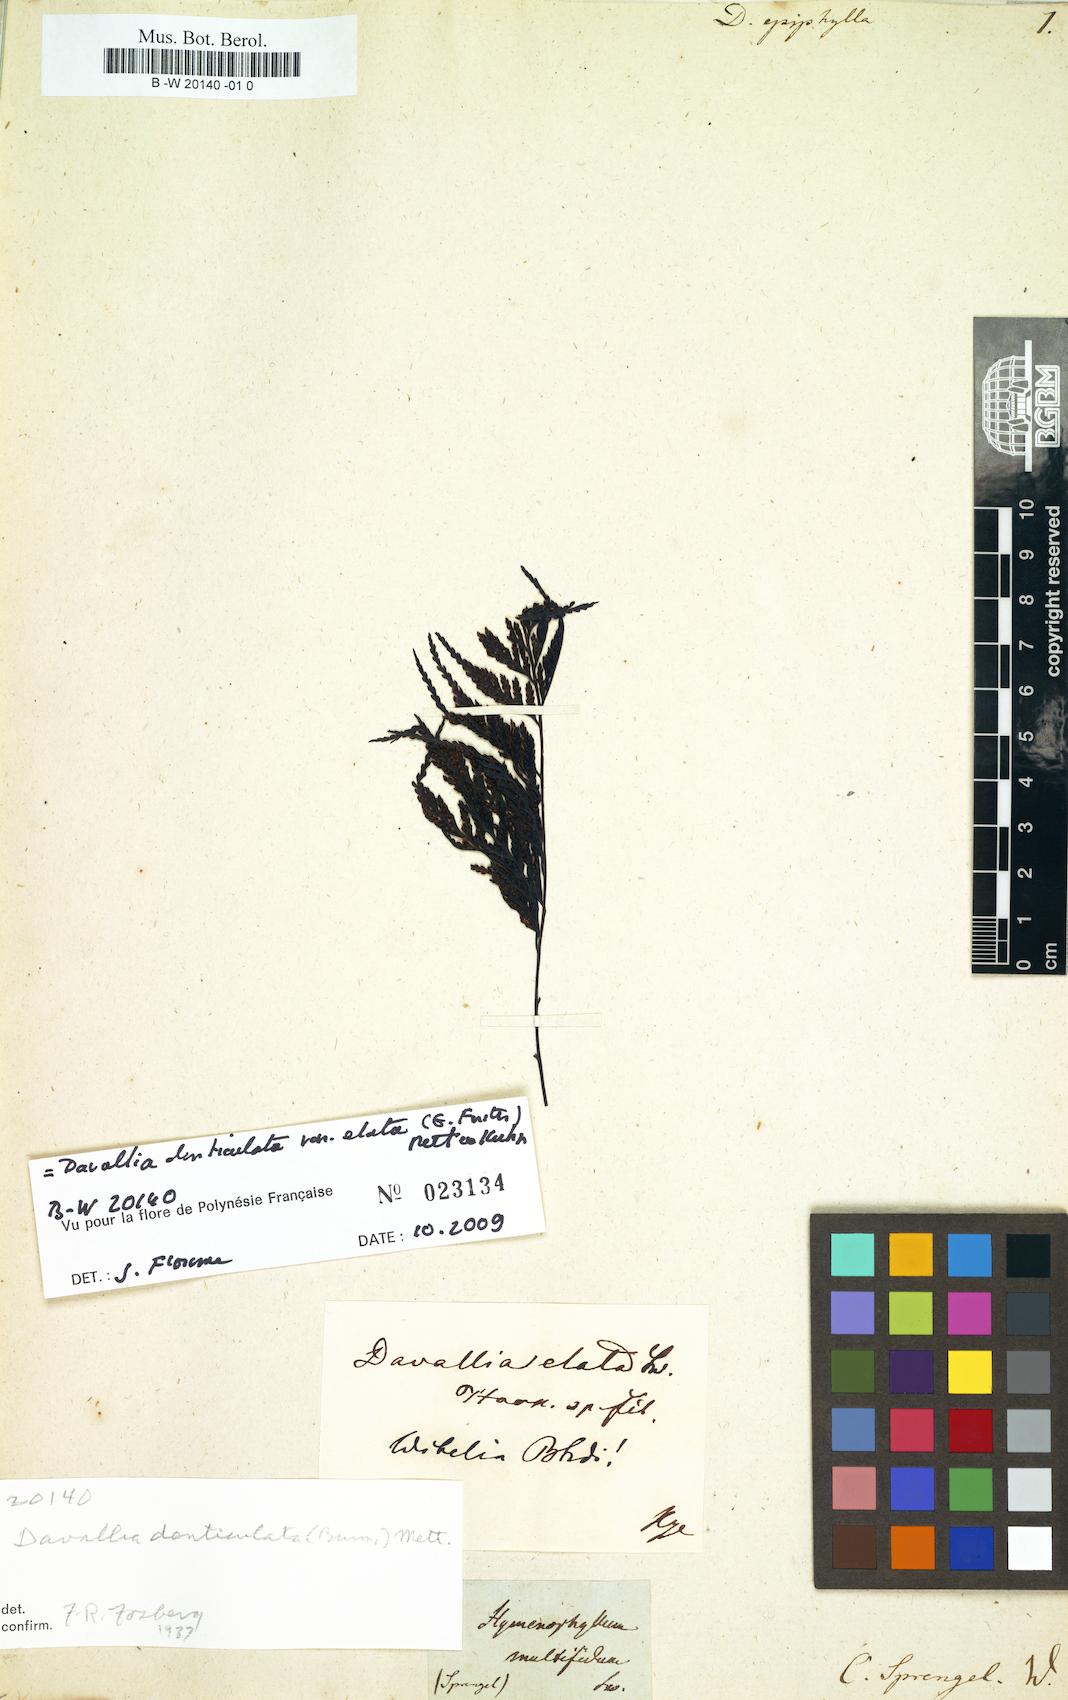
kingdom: Plantae
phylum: Tracheophyta
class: Polypodiopsida
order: Polypodiales
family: Davalliaceae
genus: Davallia
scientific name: Davallia epiphylla
